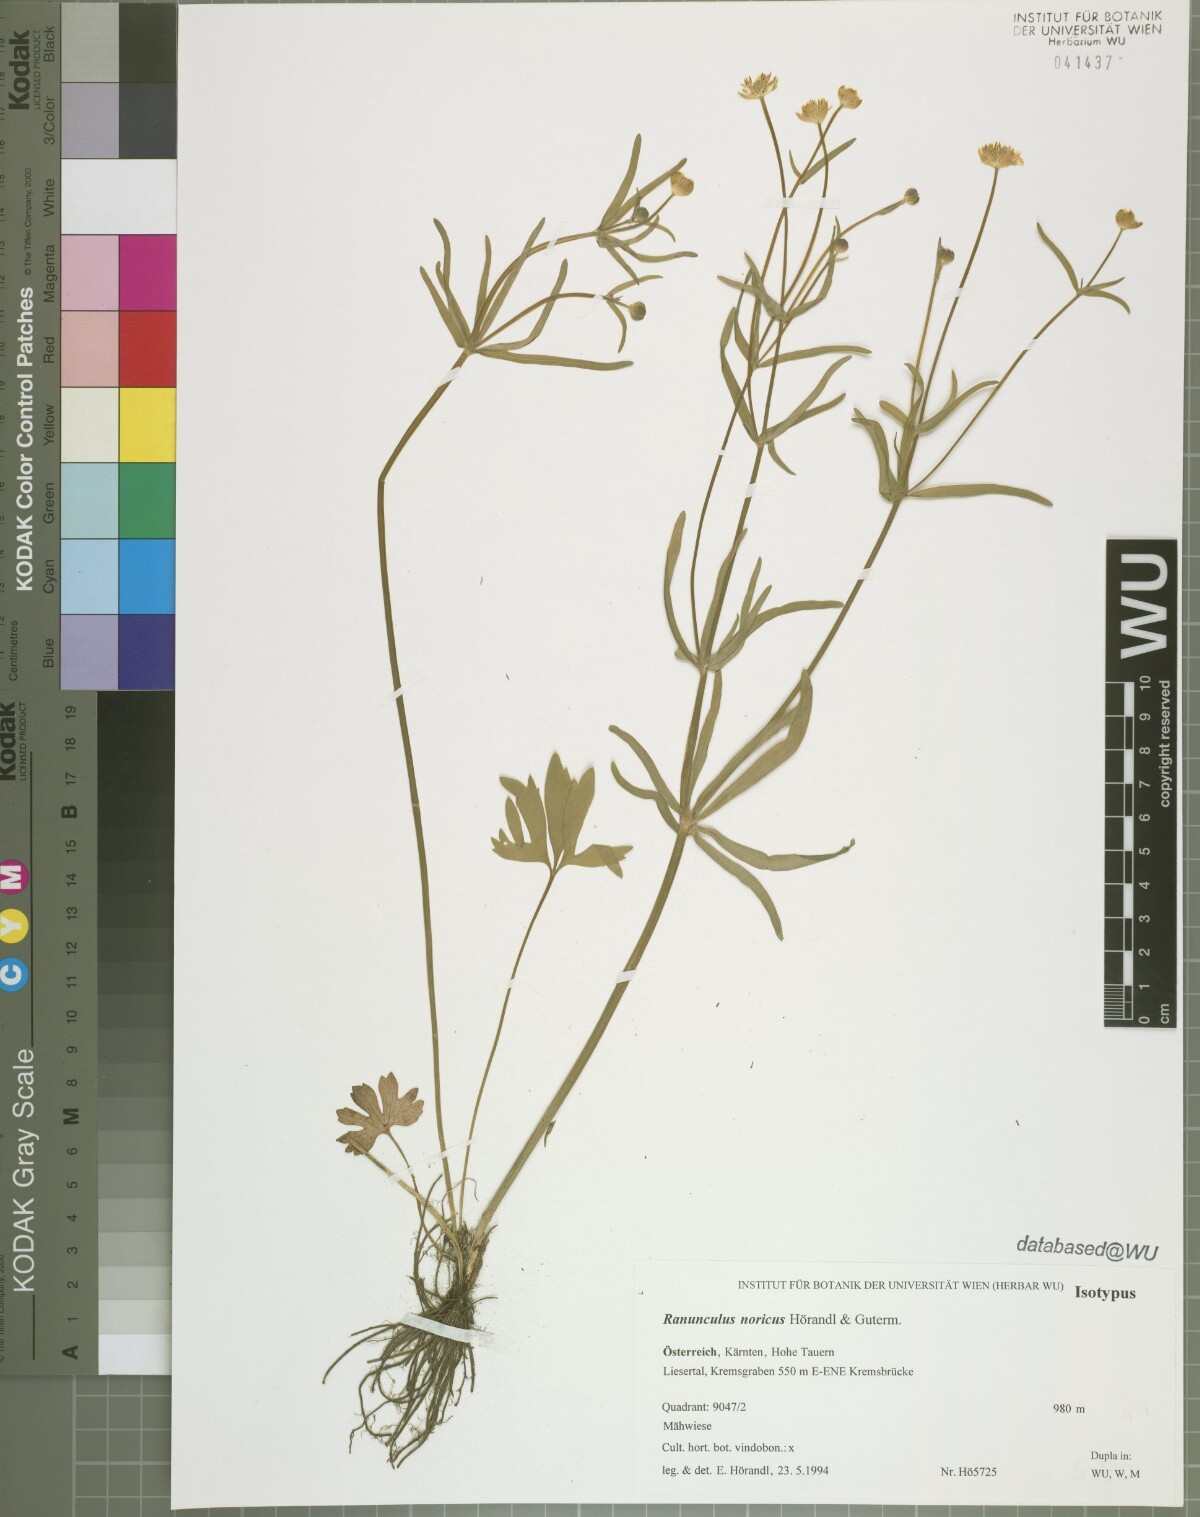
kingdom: Plantae
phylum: Tracheophyta
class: Magnoliopsida
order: Ranunculales
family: Ranunculaceae
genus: Ranunculus
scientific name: Ranunculus noricus
